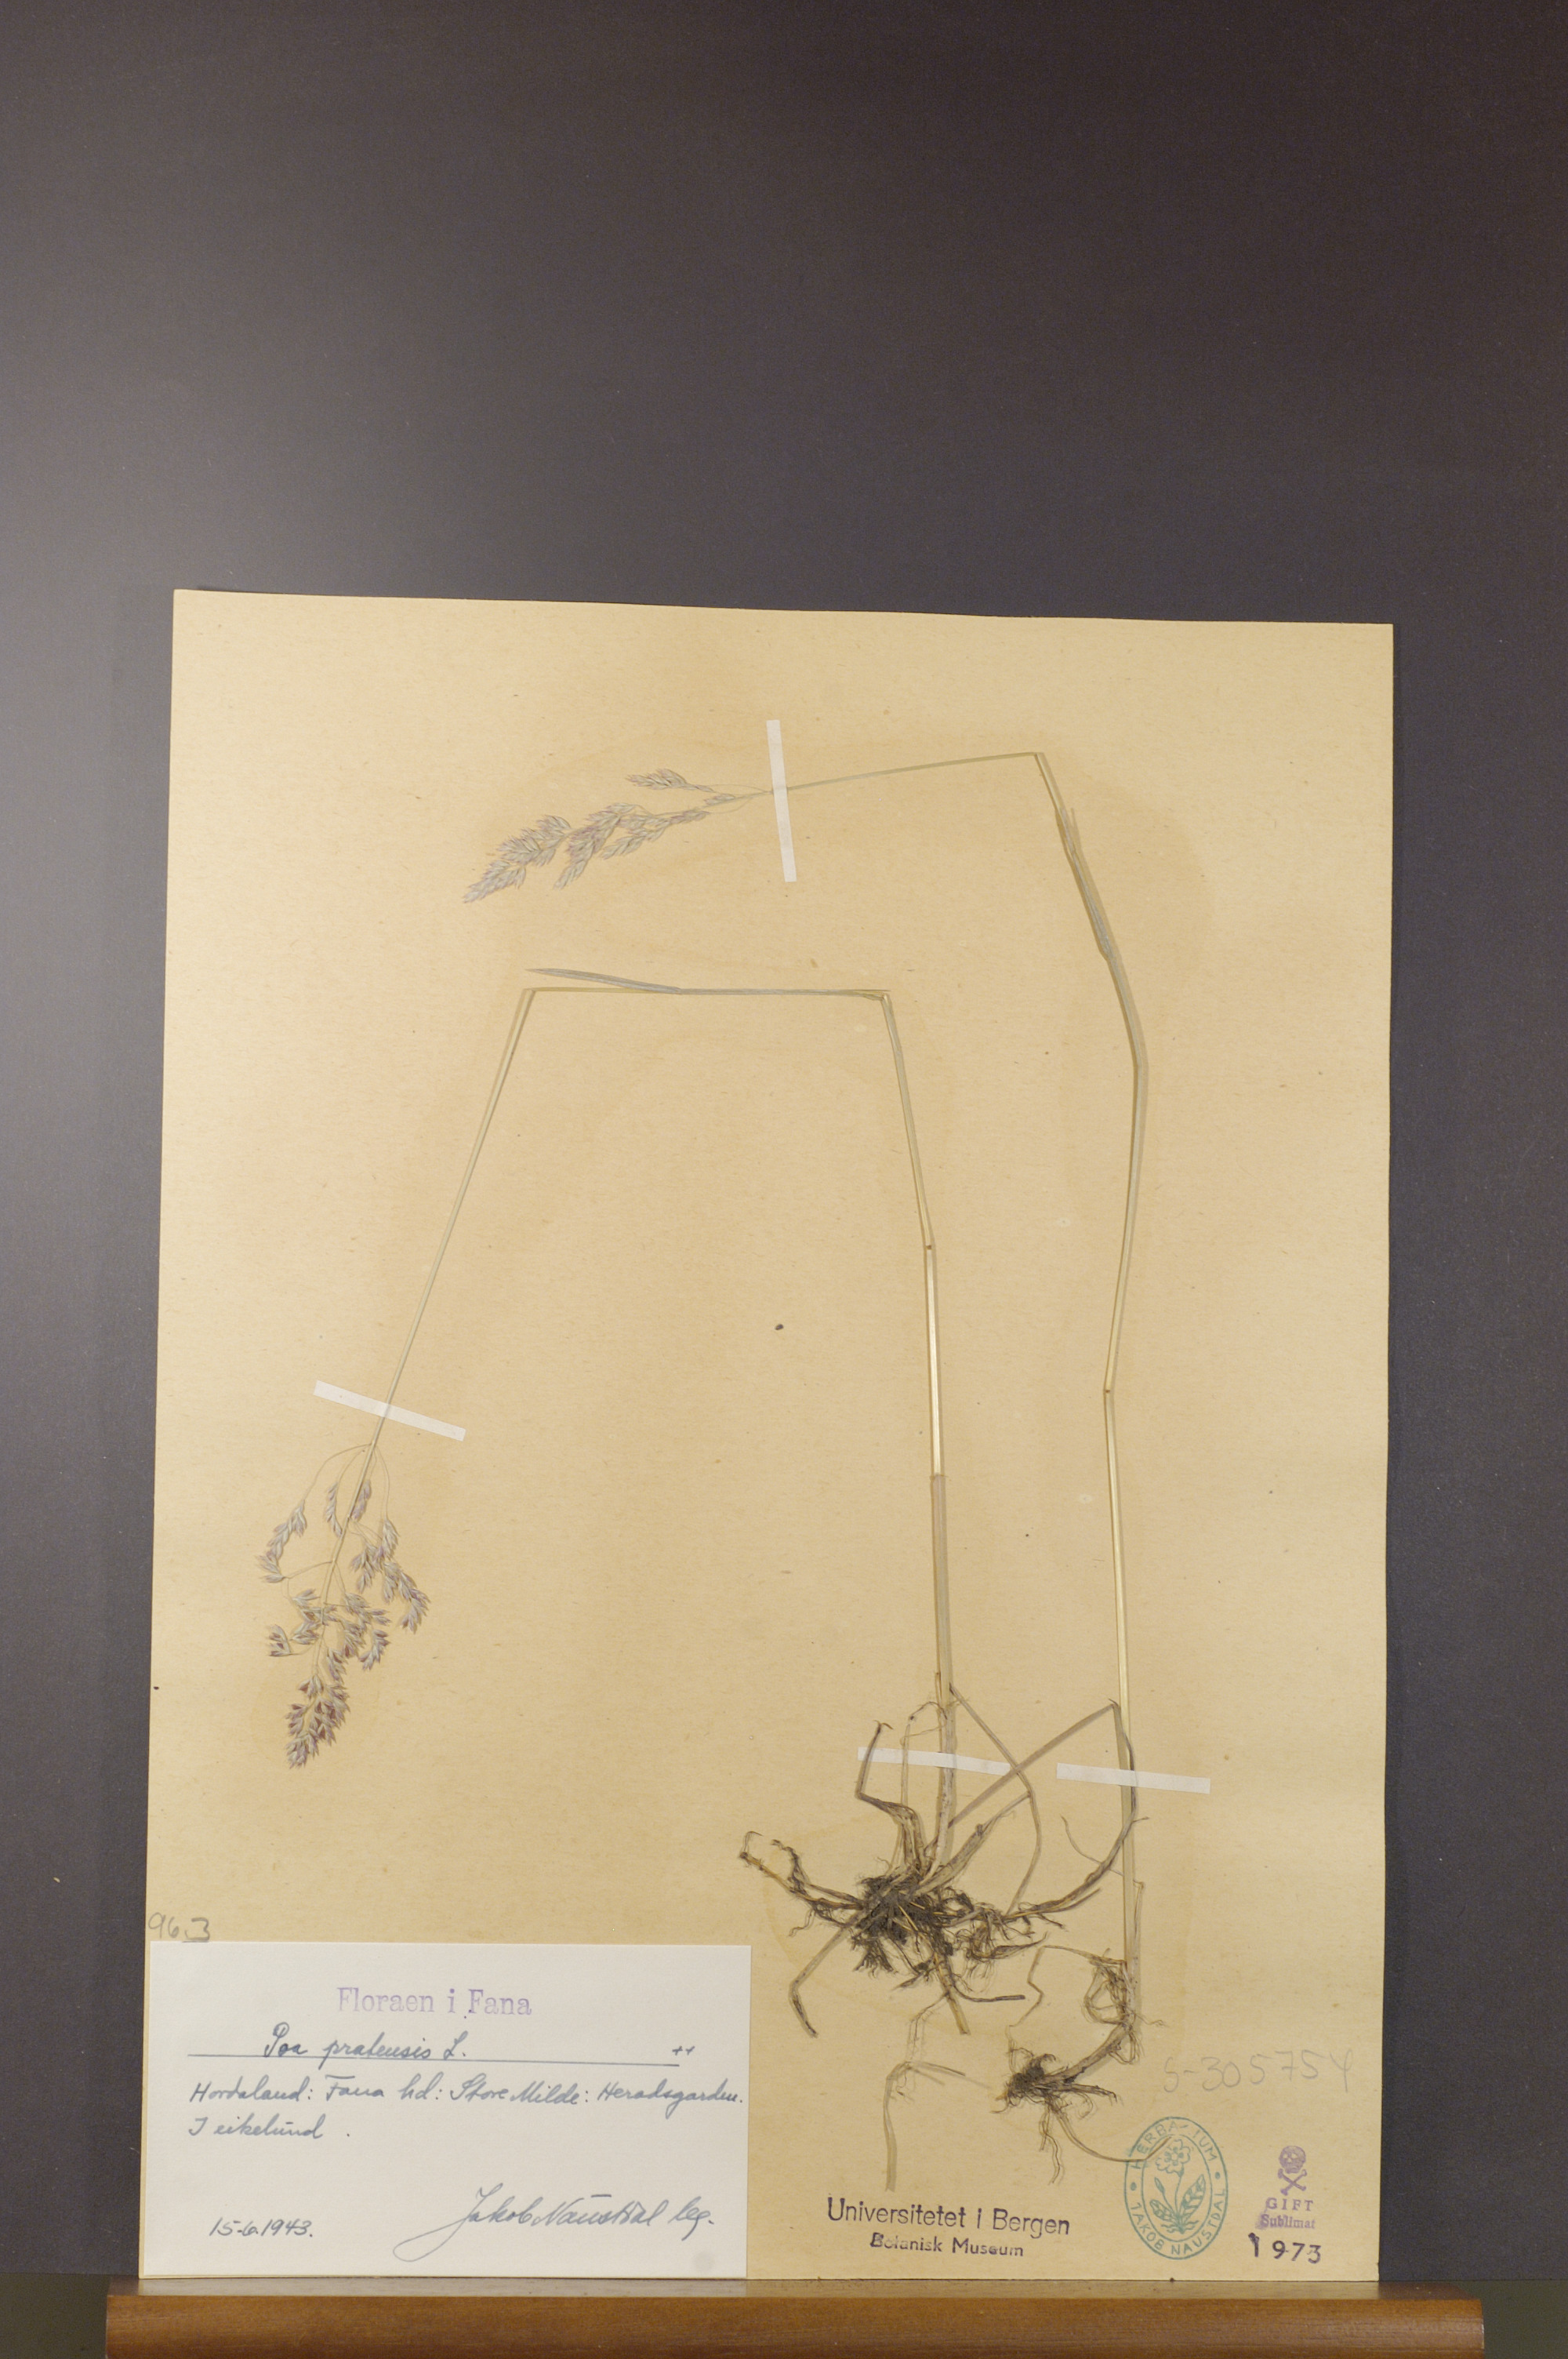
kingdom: Plantae
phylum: Tracheophyta
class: Liliopsida
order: Poales
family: Poaceae
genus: Poa
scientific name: Poa pratensis
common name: Kentucky bluegrass
